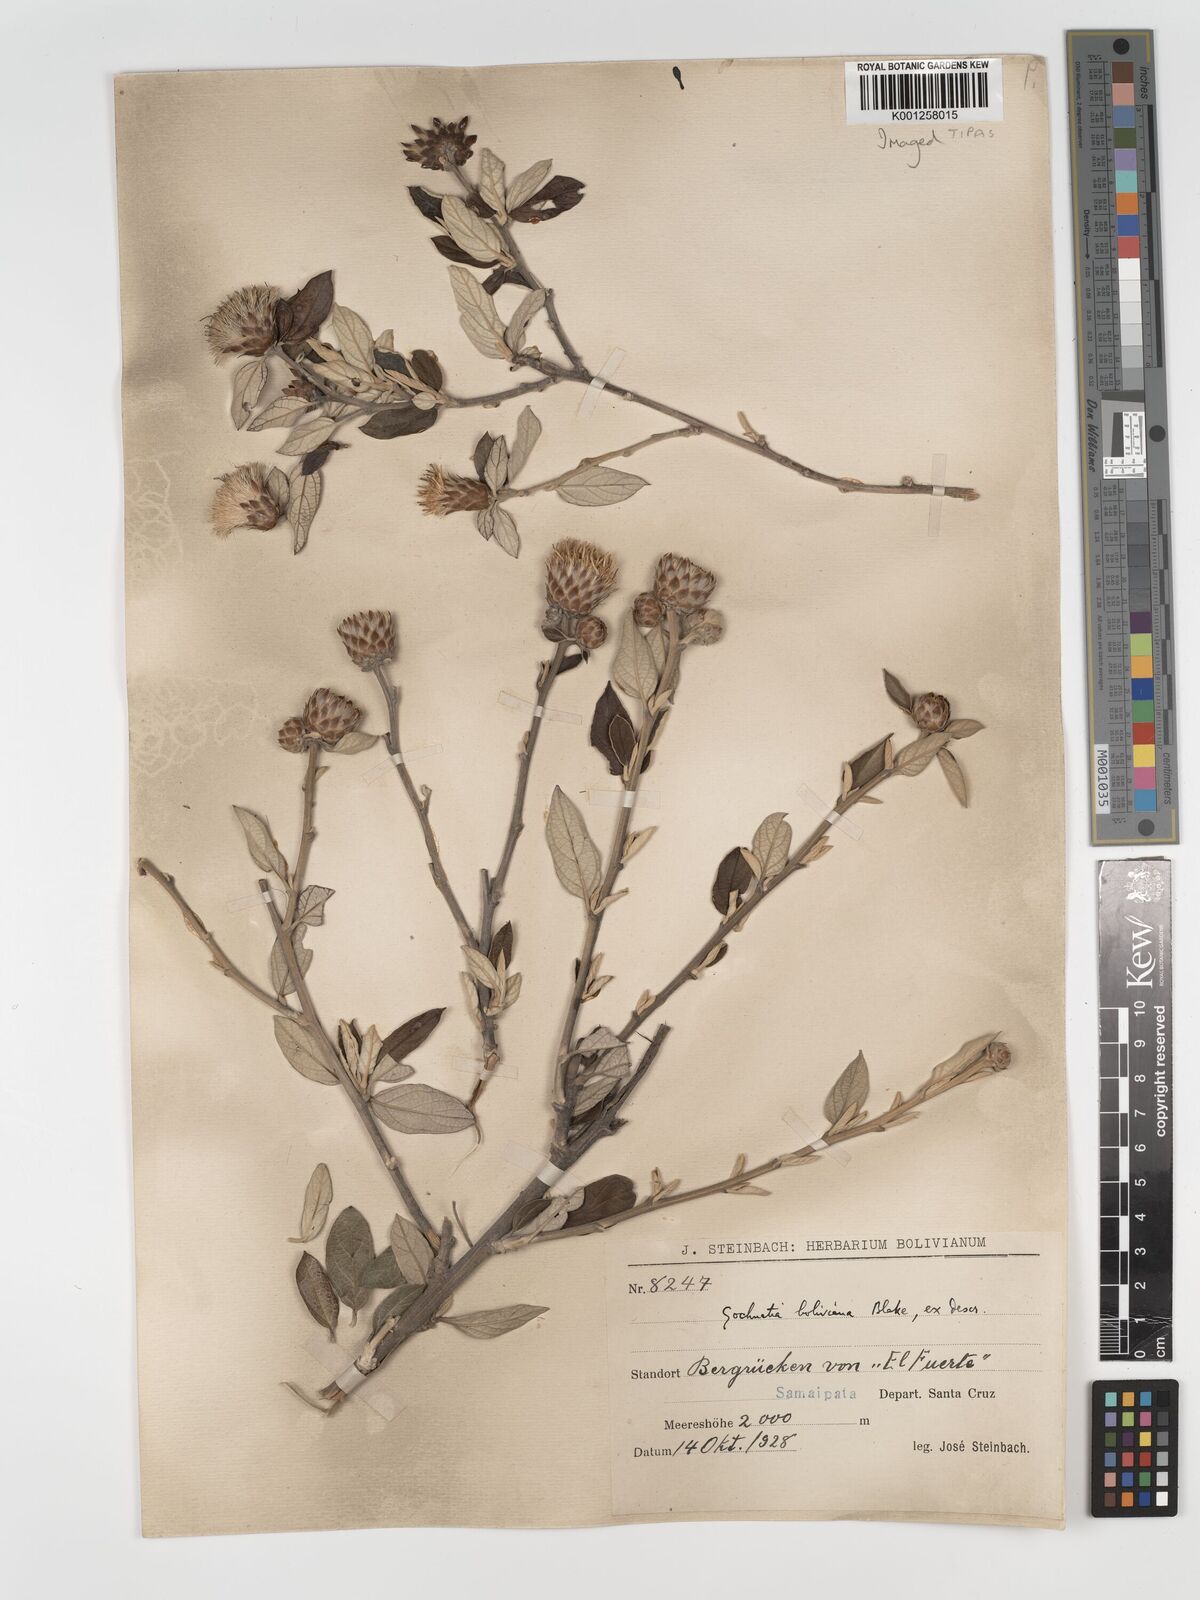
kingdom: Plantae
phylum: Tracheophyta
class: Magnoliopsida
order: Asterales
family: Asteraceae
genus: Gochnatia
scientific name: Gochnatia boliviana
